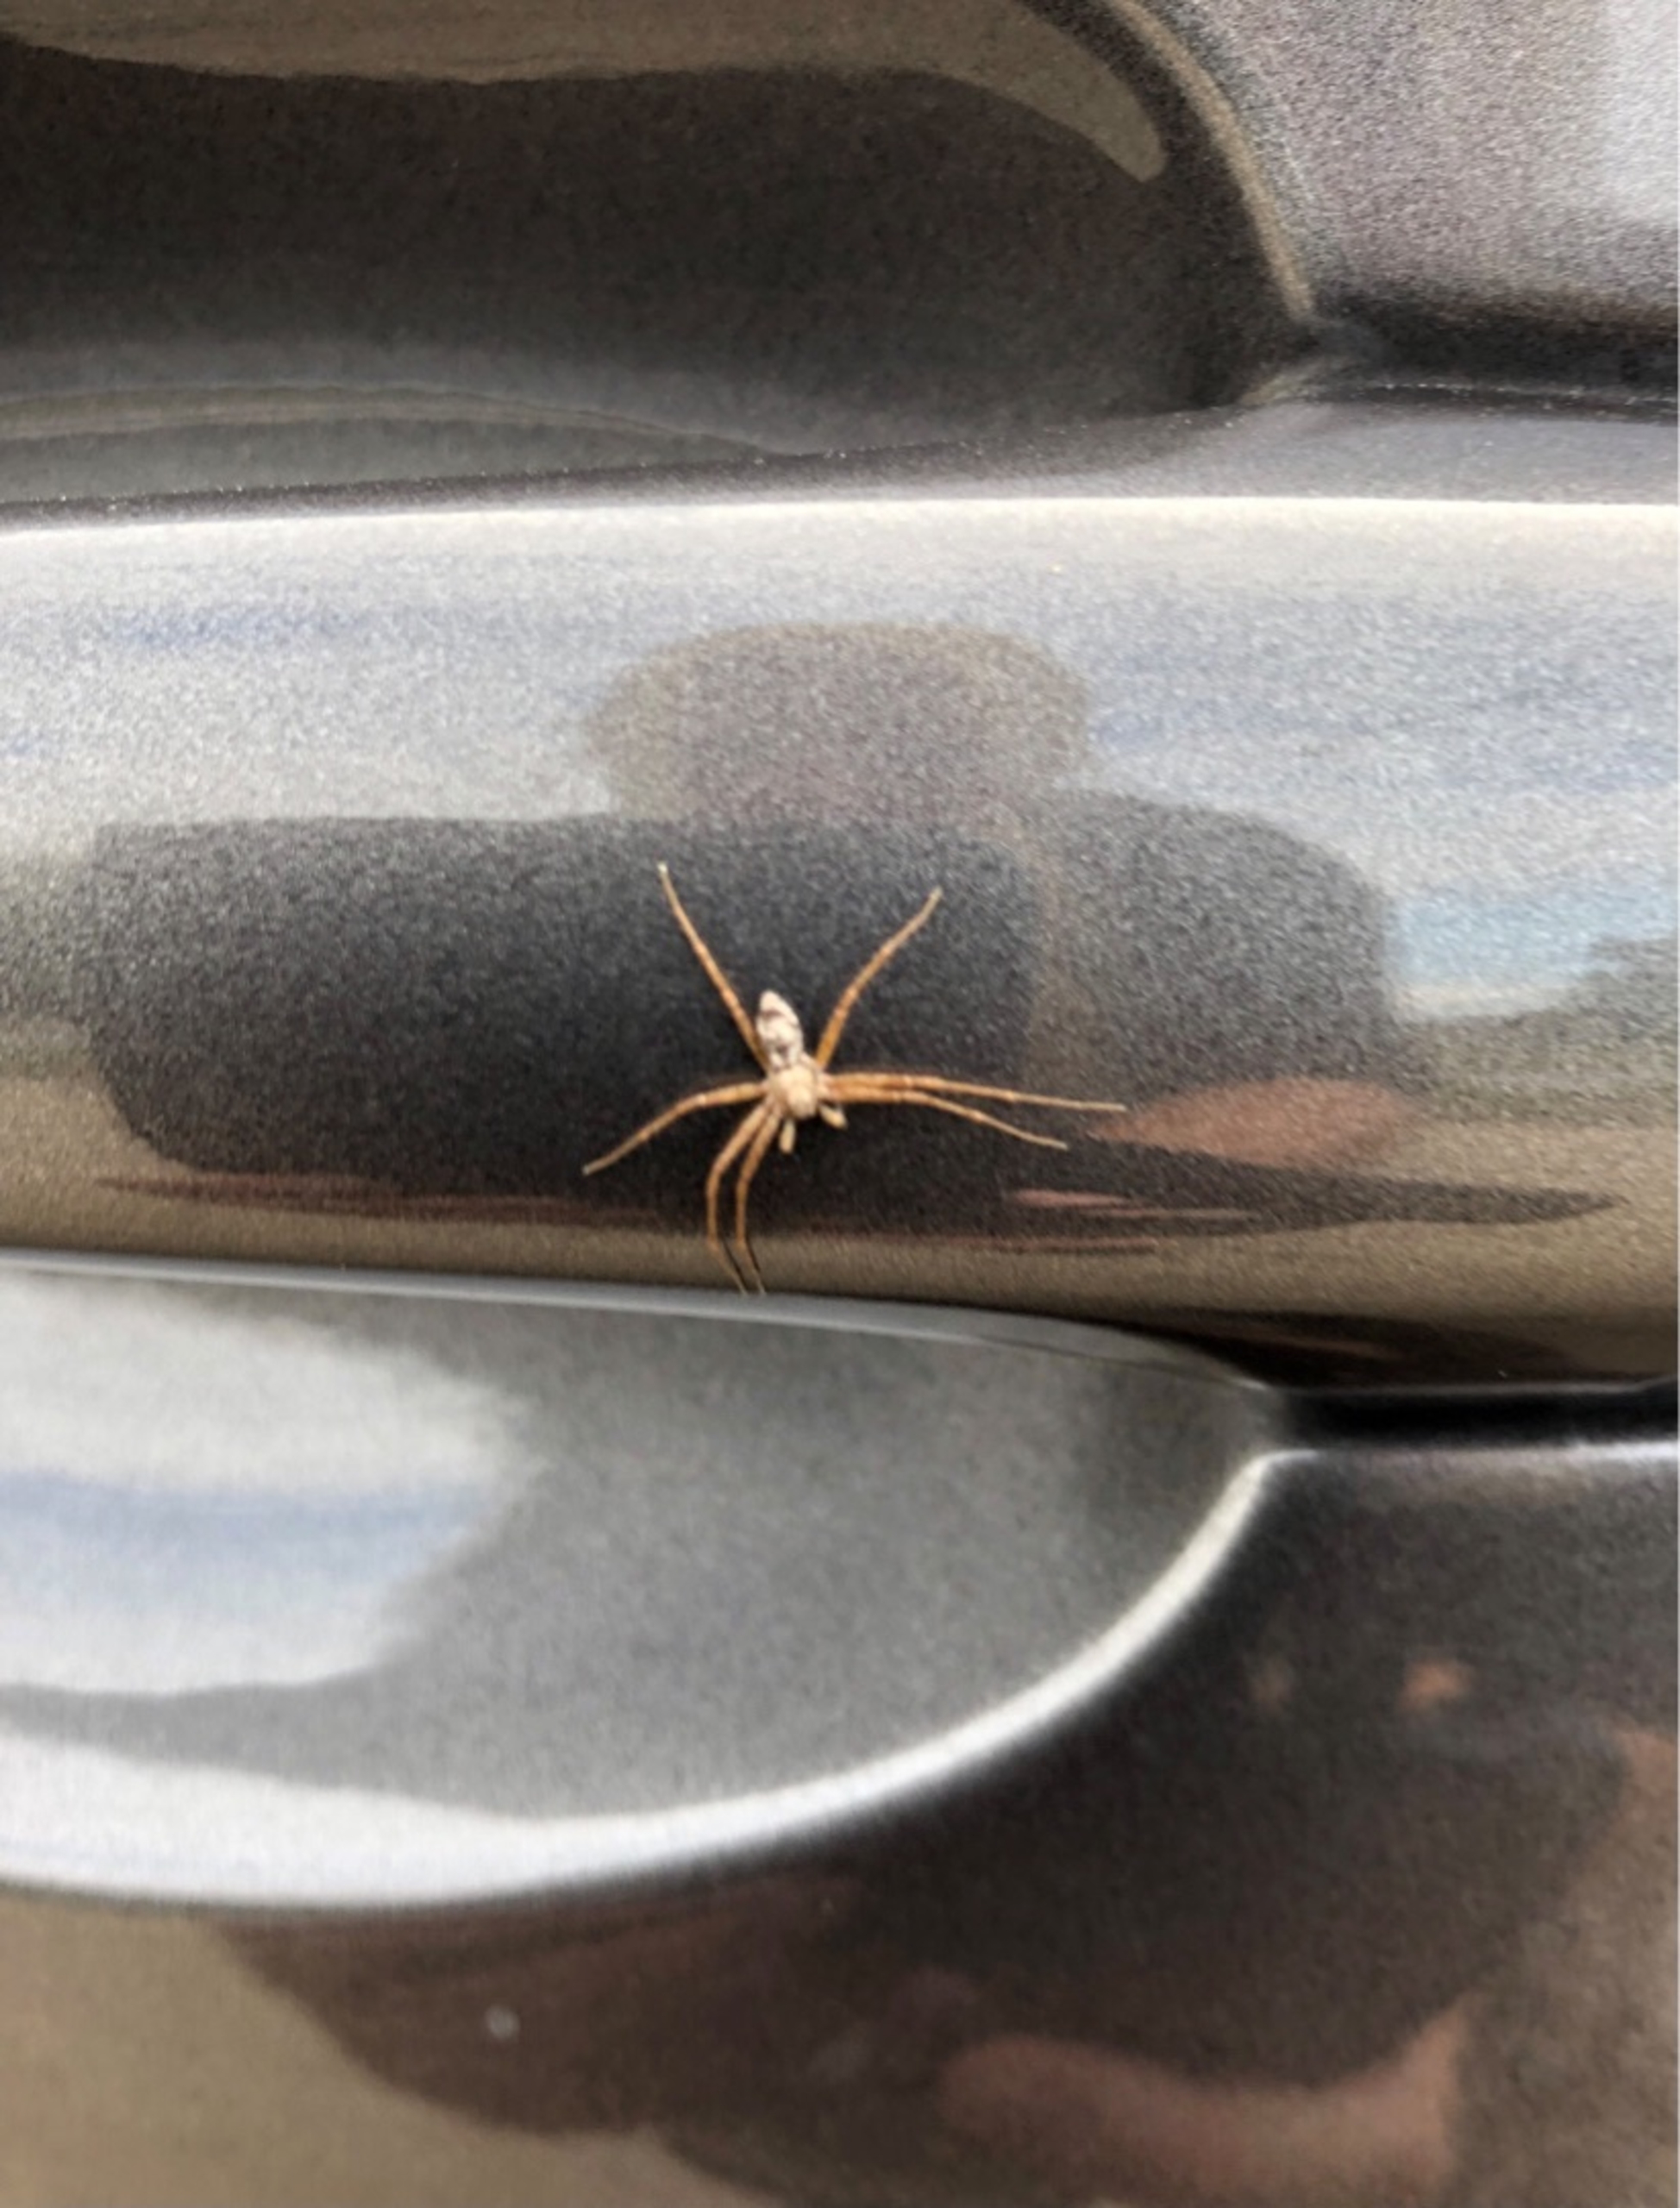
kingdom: Animalia
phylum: Arthropoda
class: Arachnida
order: Araneae
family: Philodromidae
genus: Philodromus
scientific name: Philodromus
